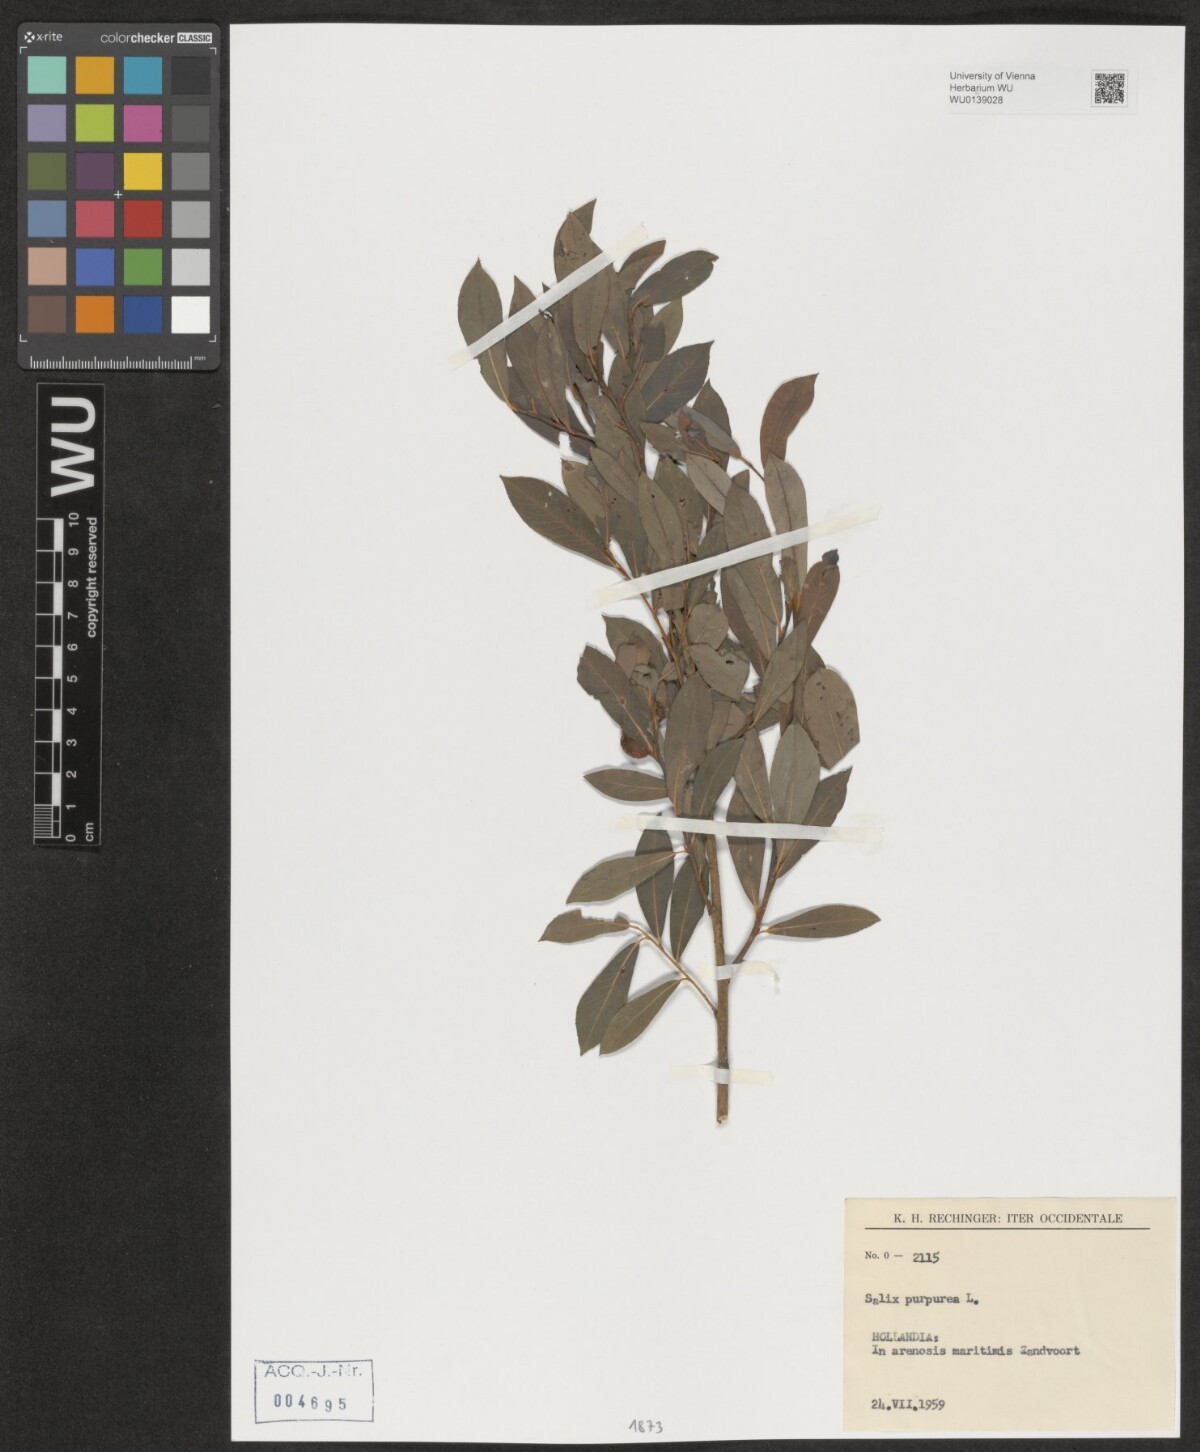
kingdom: Plantae
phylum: Tracheophyta
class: Magnoliopsida
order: Malpighiales
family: Salicaceae
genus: Salix
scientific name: Salix purpurea
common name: Purple willow
